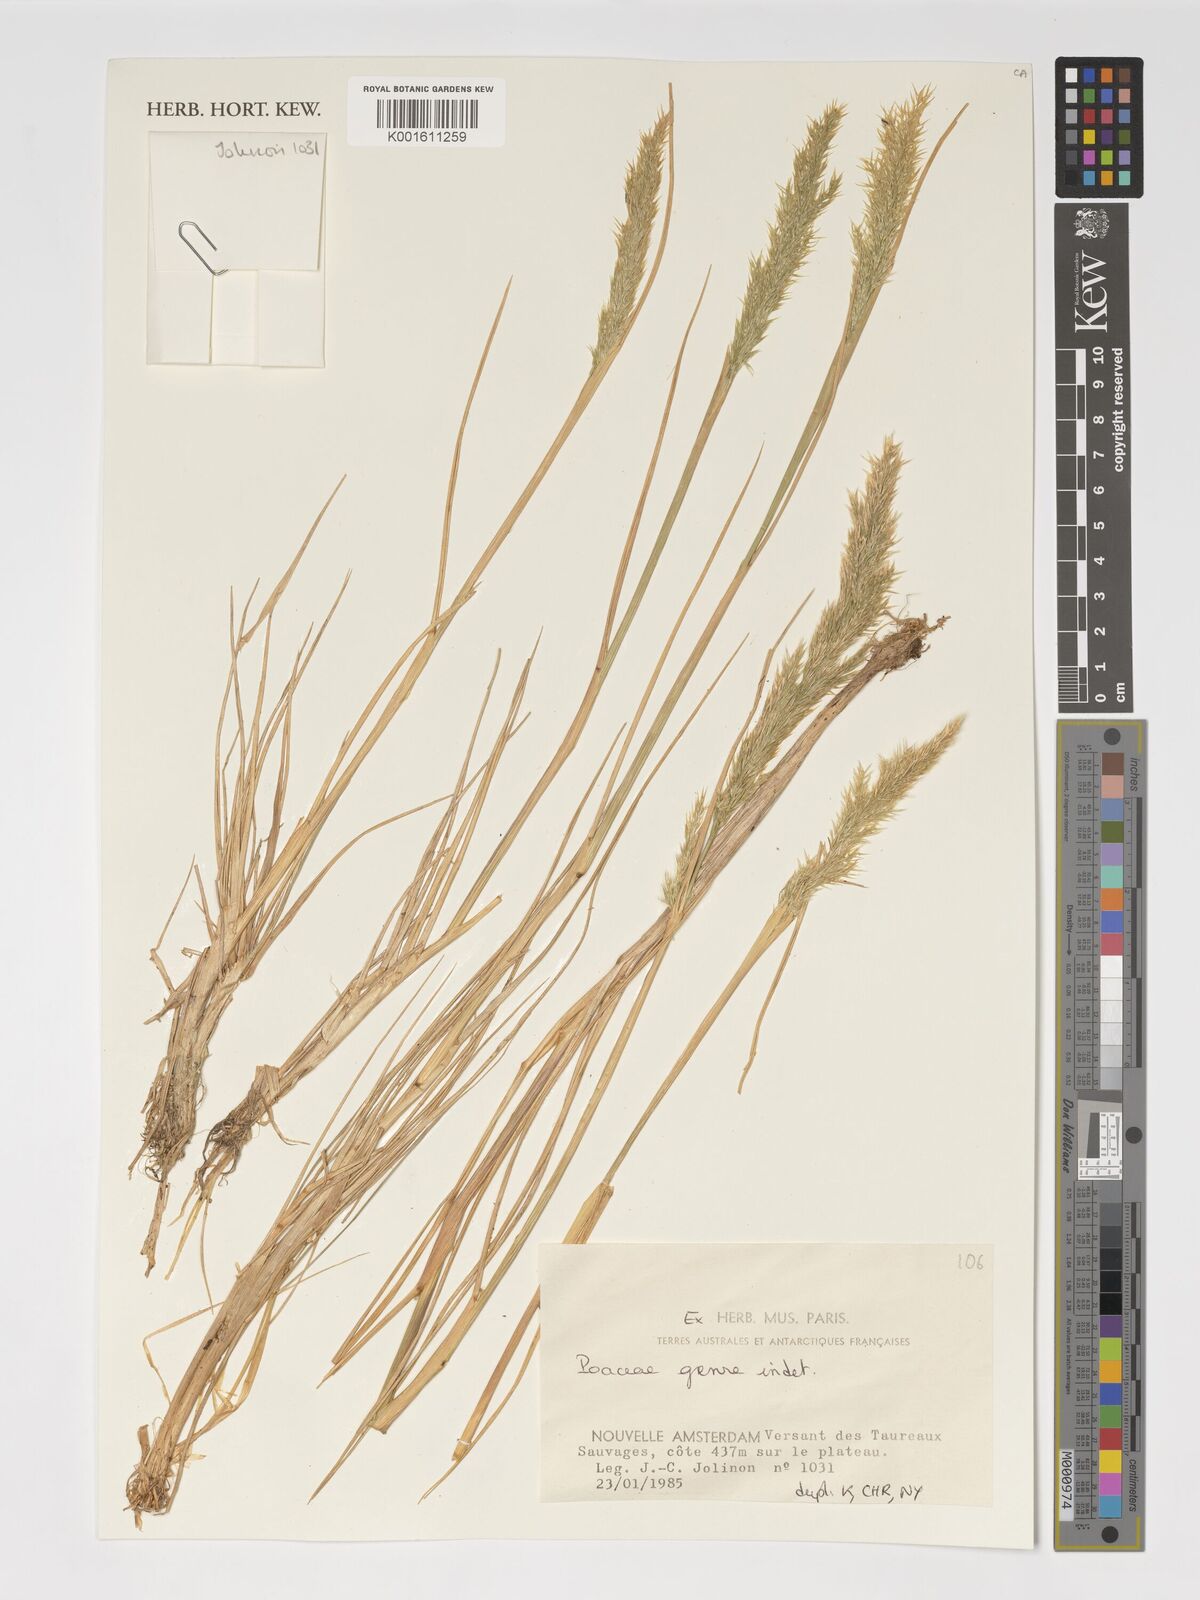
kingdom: Plantae
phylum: Tracheophyta
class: Liliopsida
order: Poales
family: Poaceae
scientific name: Poaceae
